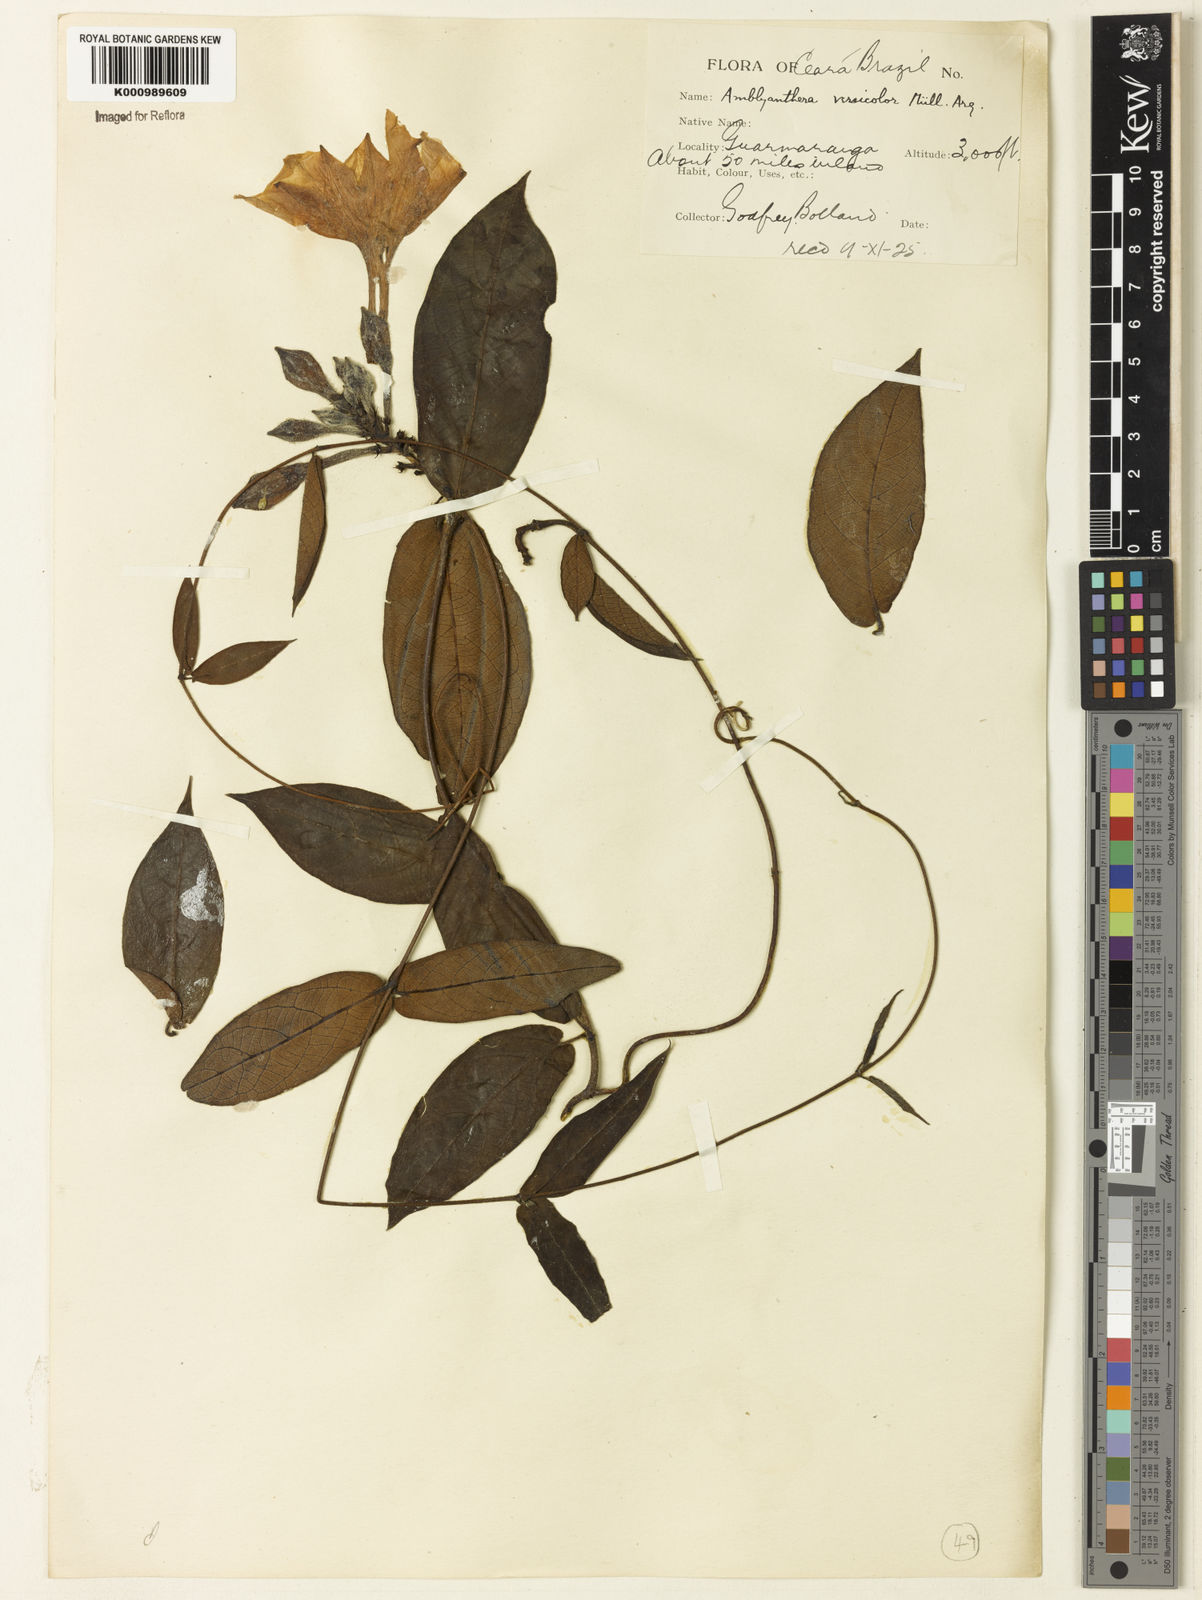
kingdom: Plantae
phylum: Tracheophyta
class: Magnoliopsida
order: Gentianales
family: Apocynaceae
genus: Mandevilla
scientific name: Mandevilla scabra
